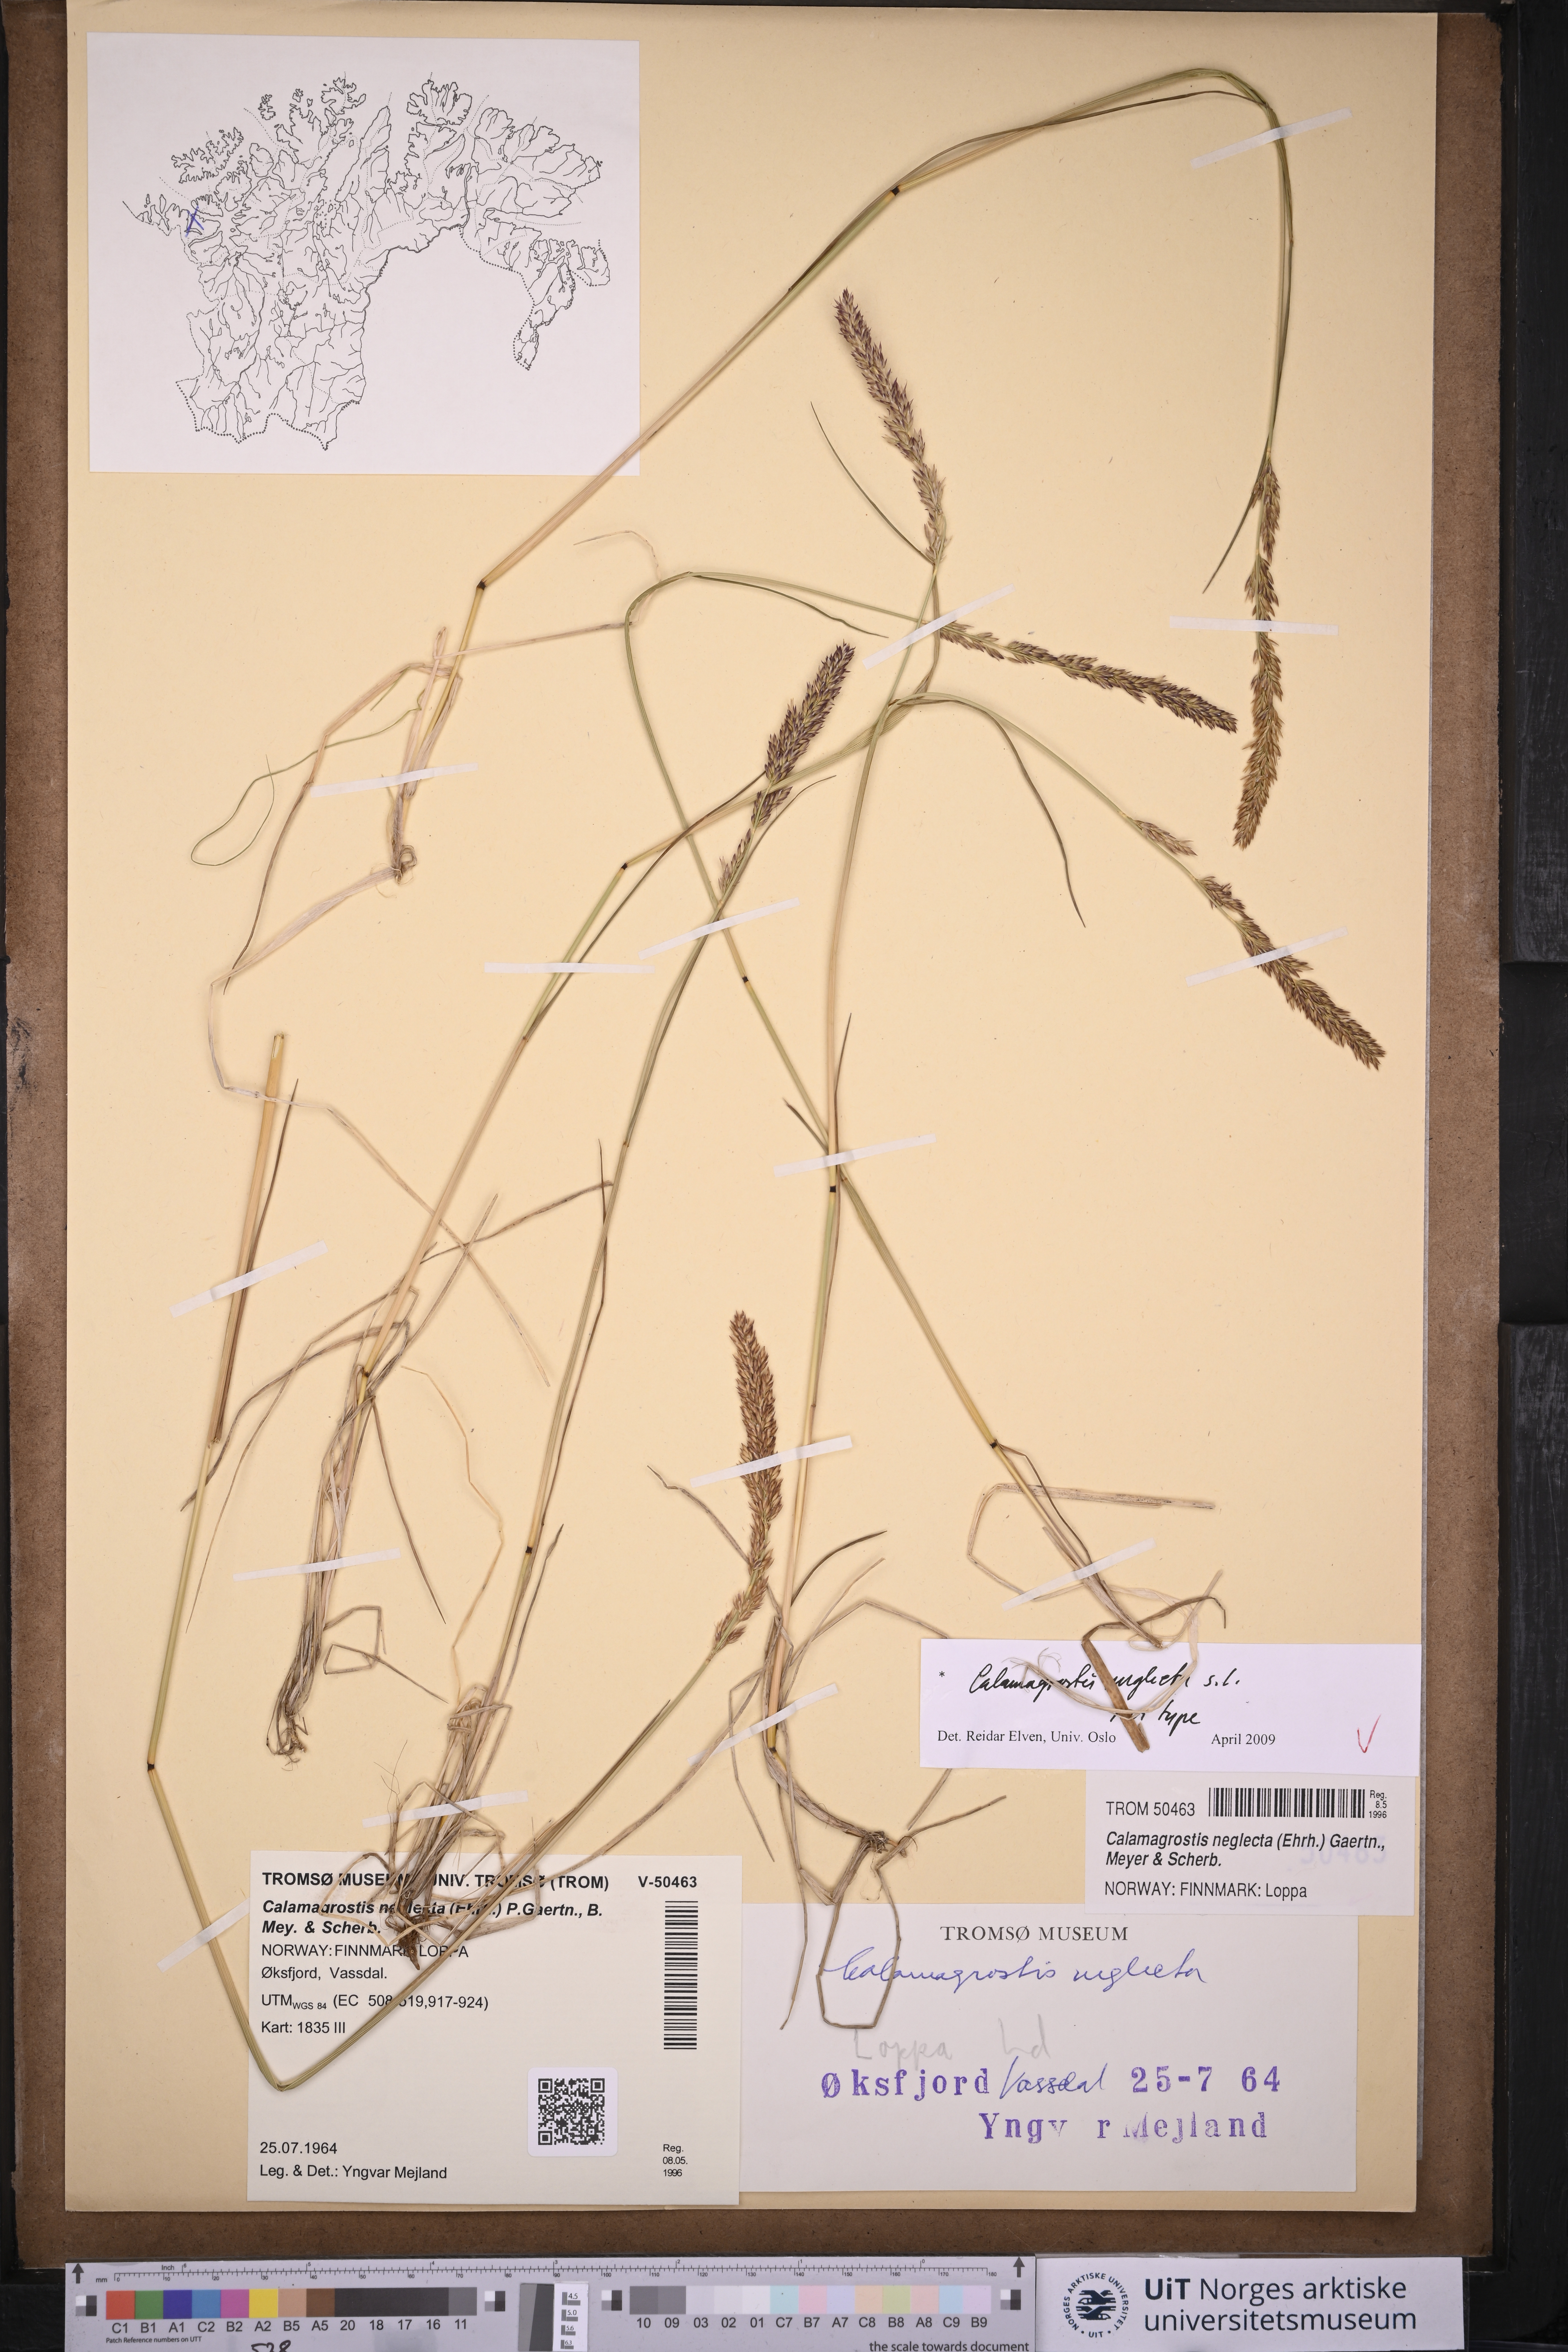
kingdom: Plantae
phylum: Tracheophyta
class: Liliopsida
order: Poales
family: Poaceae
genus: Achnatherum
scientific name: Achnatherum calamagrostis
